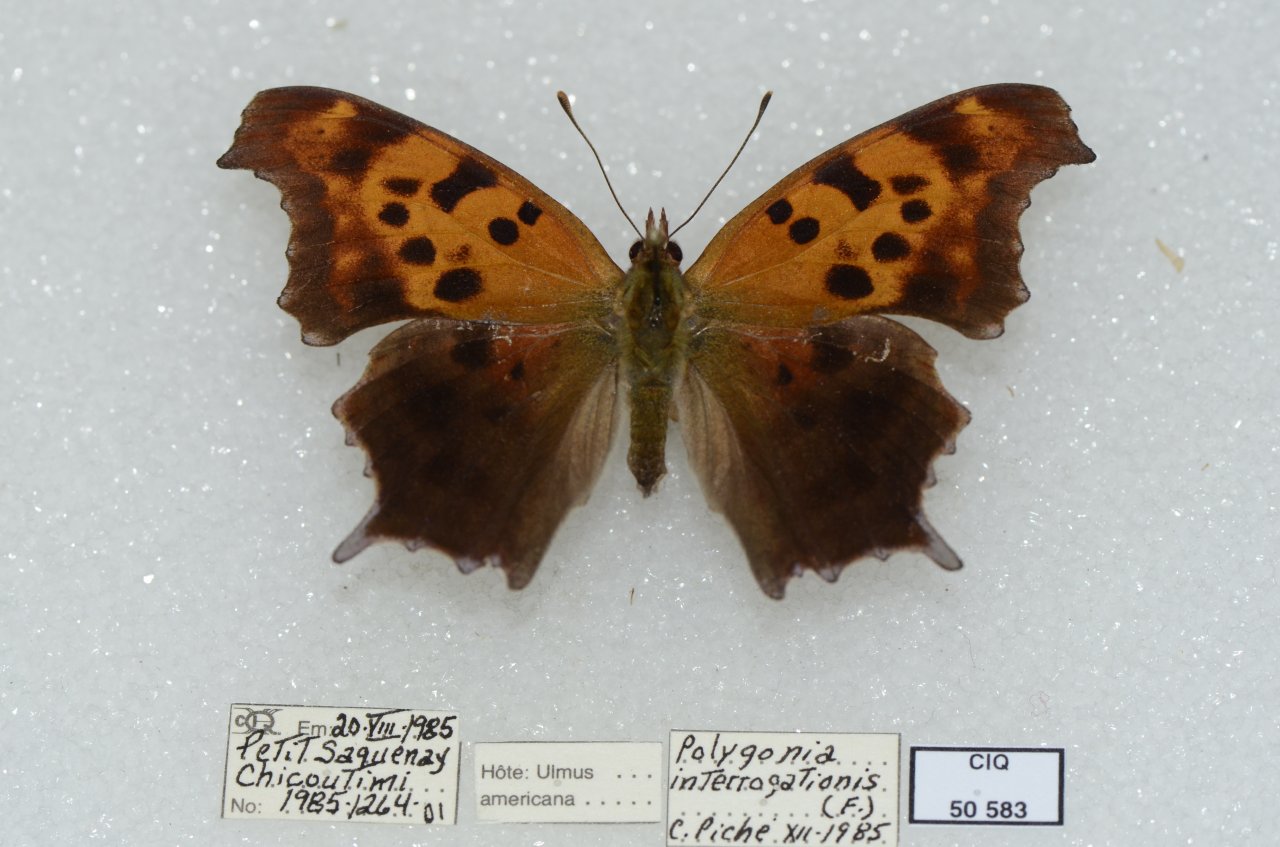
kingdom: Animalia
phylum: Arthropoda
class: Insecta
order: Lepidoptera
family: Nymphalidae
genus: Polygonia
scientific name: Polygonia interrogationis
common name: Question Mark
